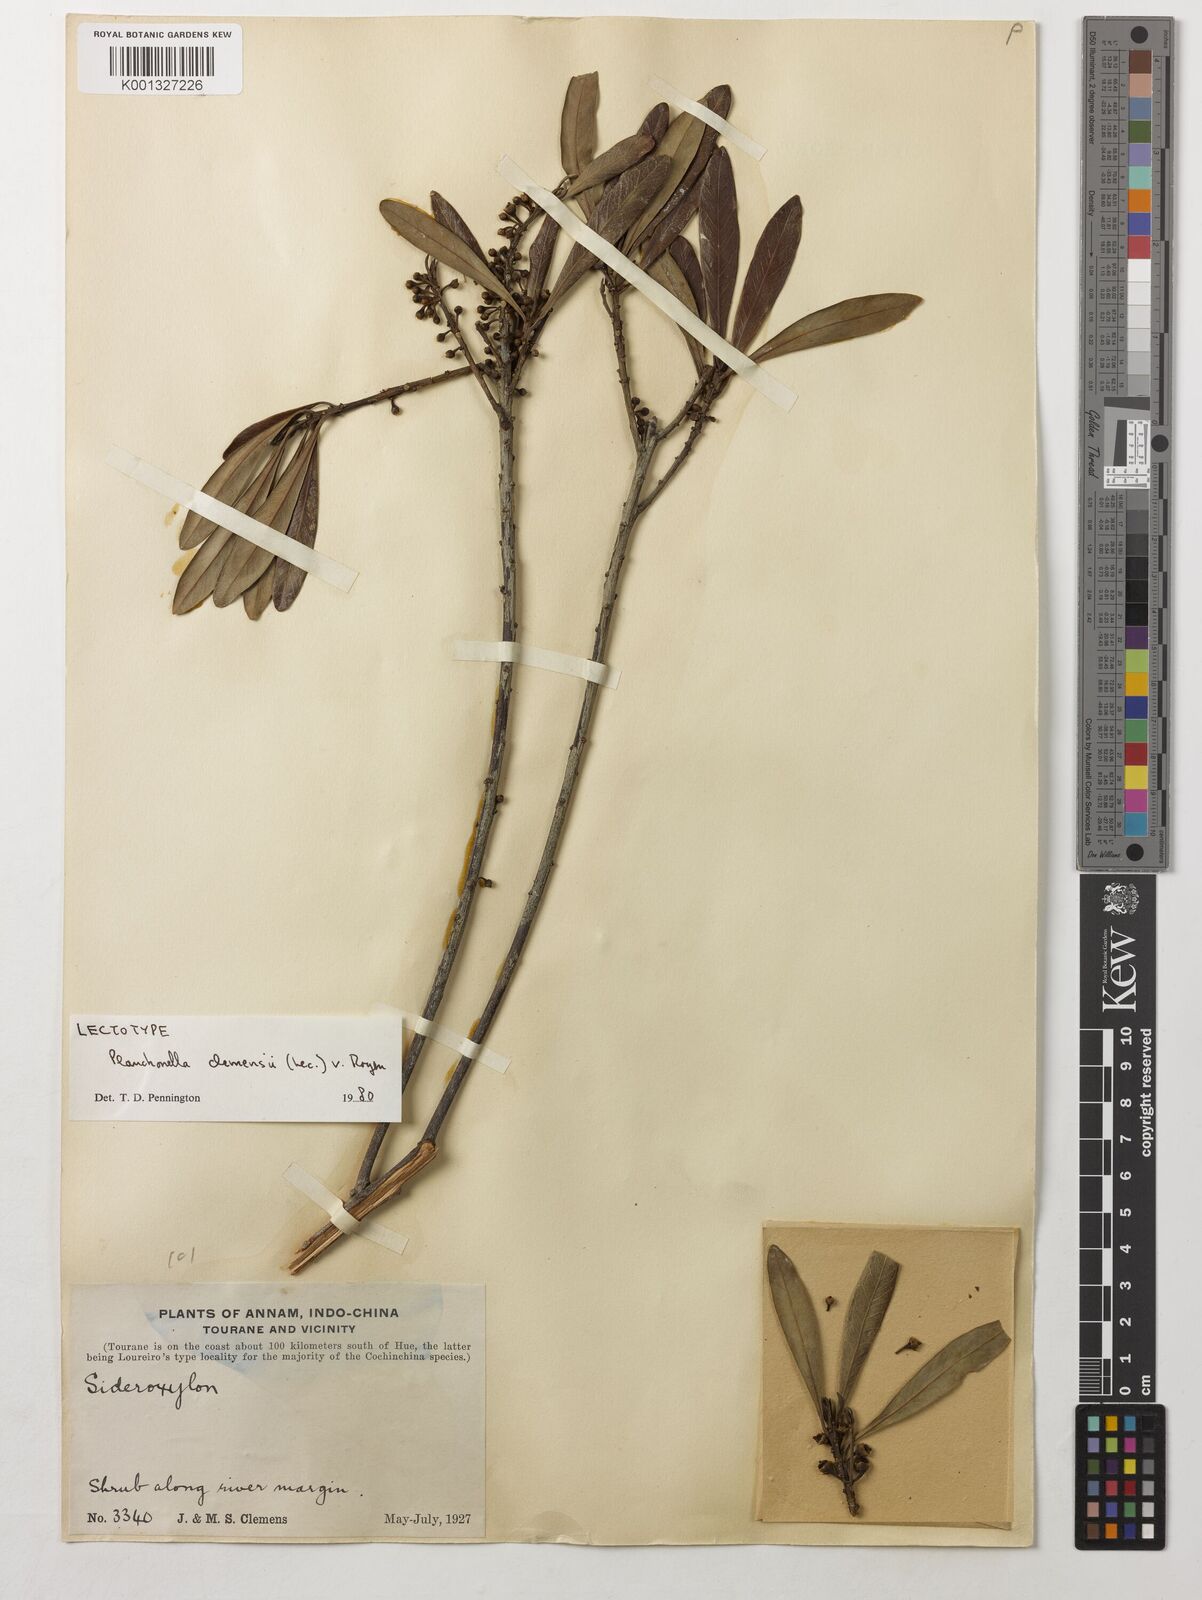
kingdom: Plantae
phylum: Tracheophyta
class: Magnoliopsida
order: Ericales
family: Sapotaceae
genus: Planchonella
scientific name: Planchonella clemensii
